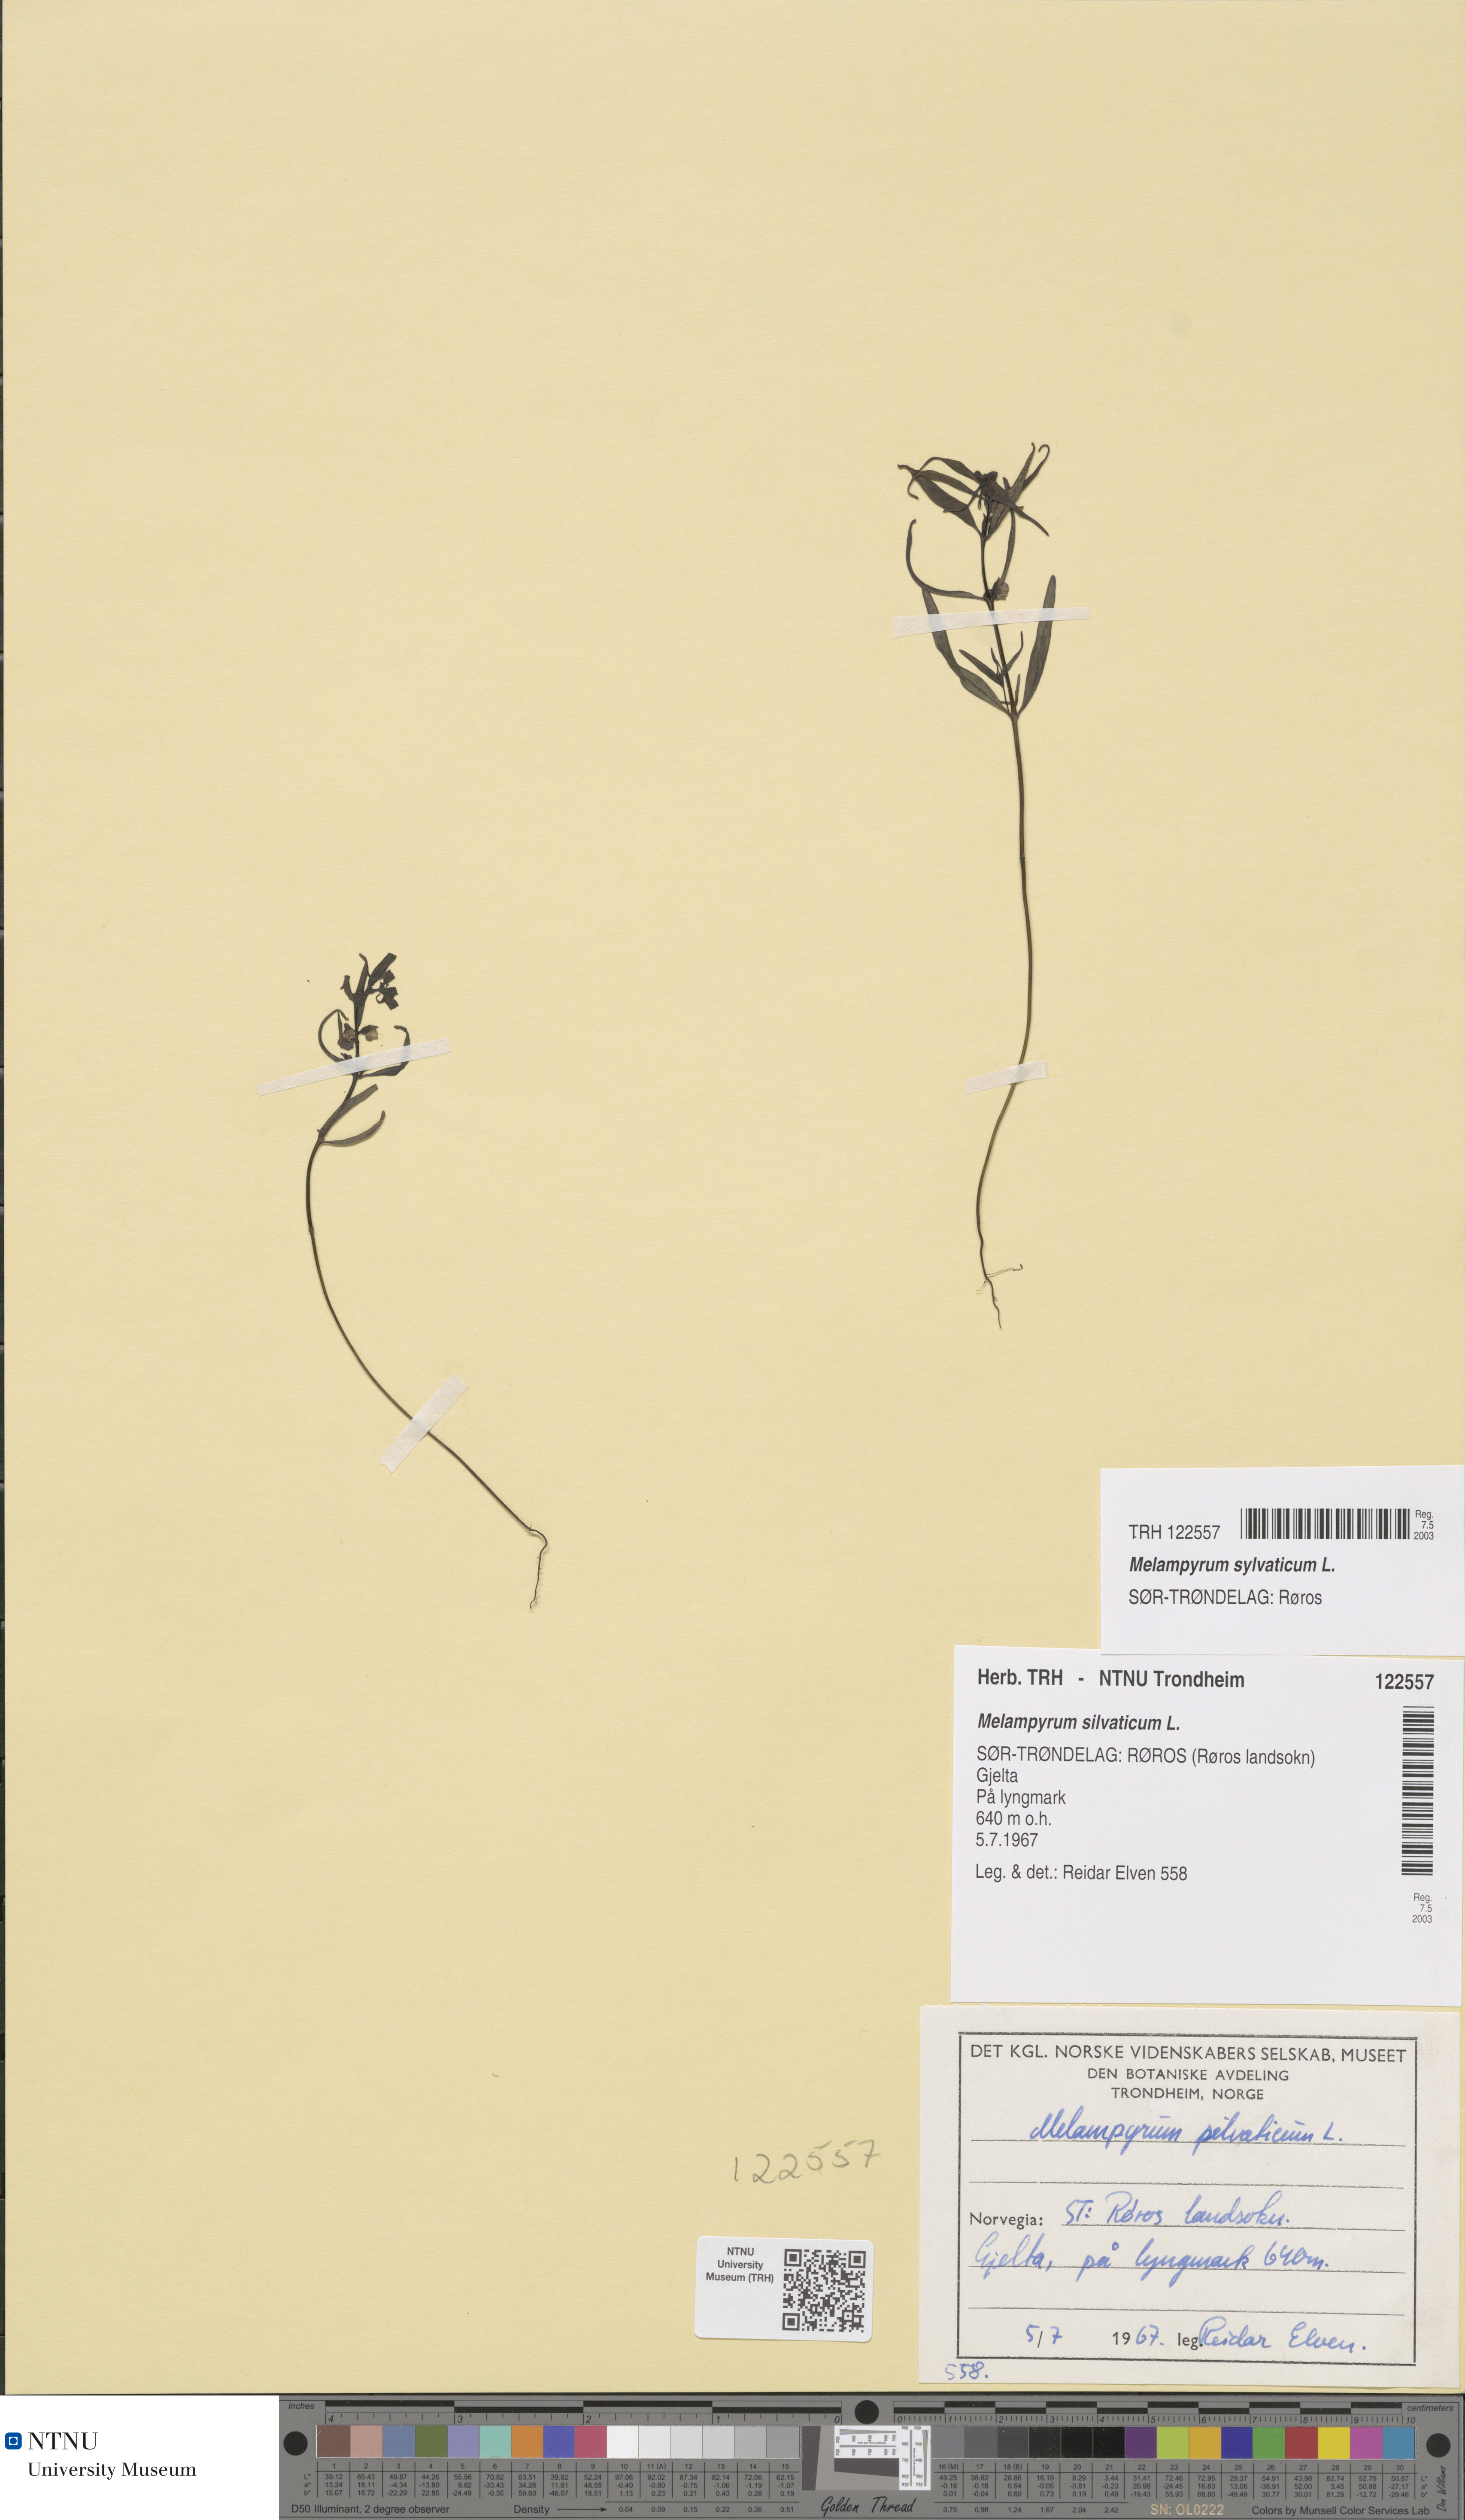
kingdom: Plantae
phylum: Tracheophyta
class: Magnoliopsida
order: Lamiales
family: Orobanchaceae
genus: Melampyrum
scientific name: Melampyrum sylvaticum
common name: Small cow-wheat
